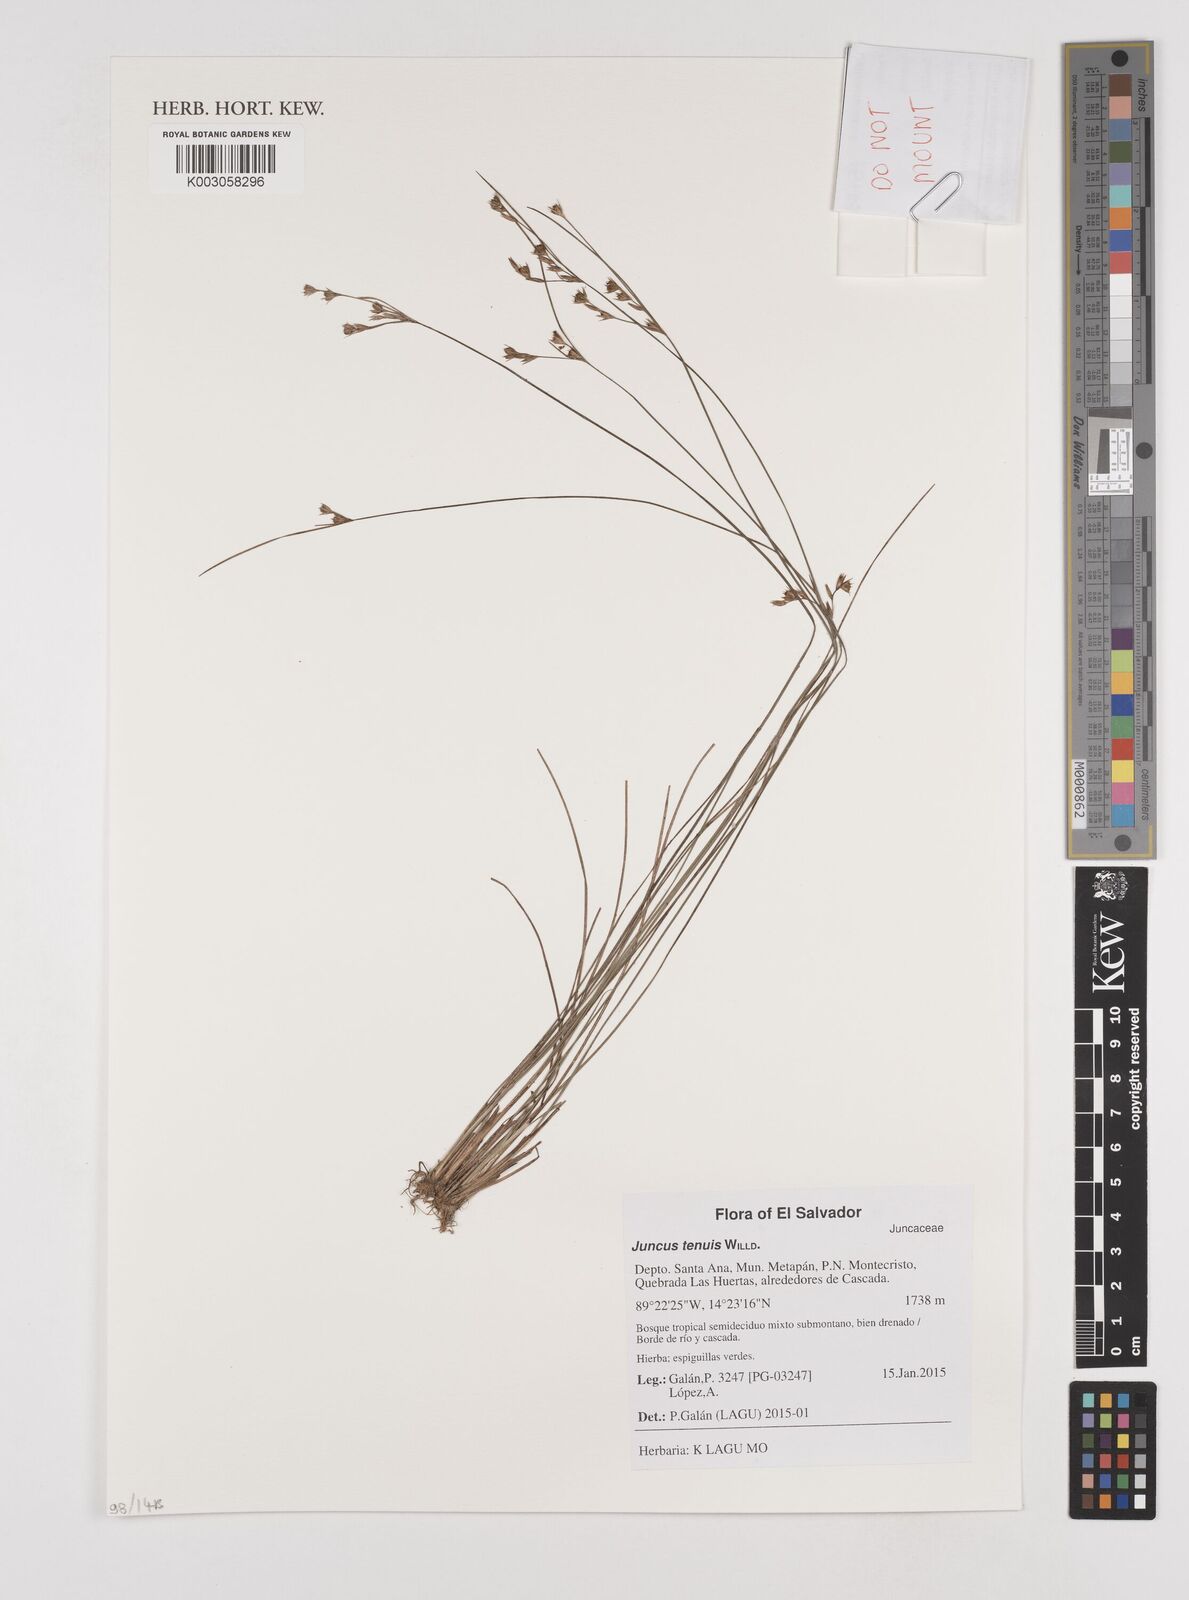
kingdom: Plantae
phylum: Tracheophyta
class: Liliopsida
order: Poales
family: Juncaceae
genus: Juncus
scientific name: Juncus tenuis
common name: Slender rush
